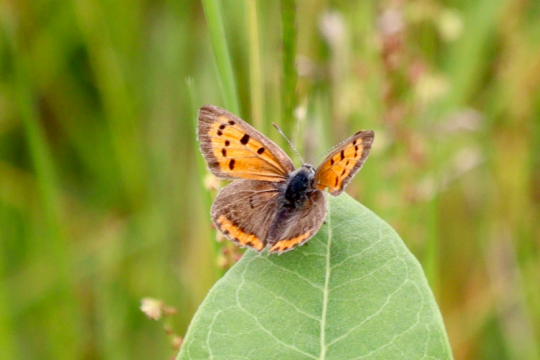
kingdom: Animalia
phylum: Arthropoda
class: Insecta
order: Lepidoptera
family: Lycaenidae
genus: Lycaena
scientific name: Lycaena phlaeas
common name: American Copper
